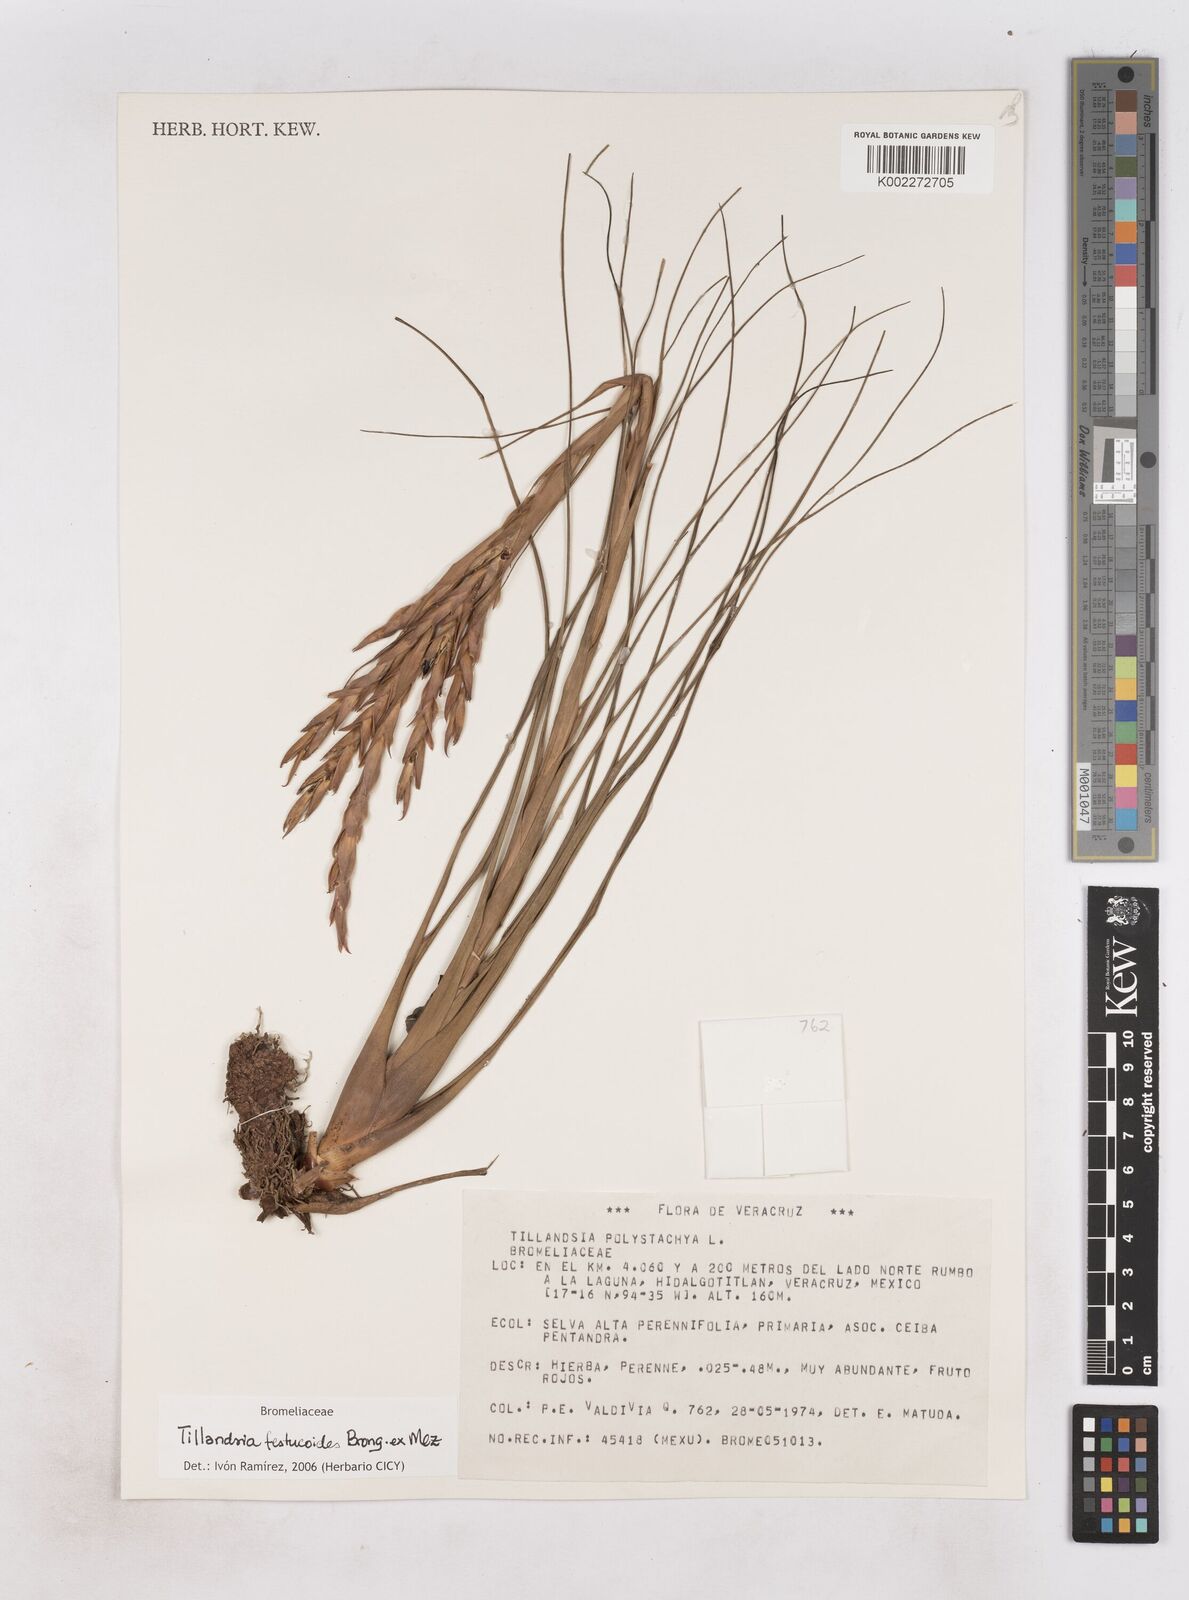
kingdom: Plantae
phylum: Tracheophyta
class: Liliopsida
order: Poales
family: Bromeliaceae
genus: Tillandsia
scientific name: Tillandsia festucoides
